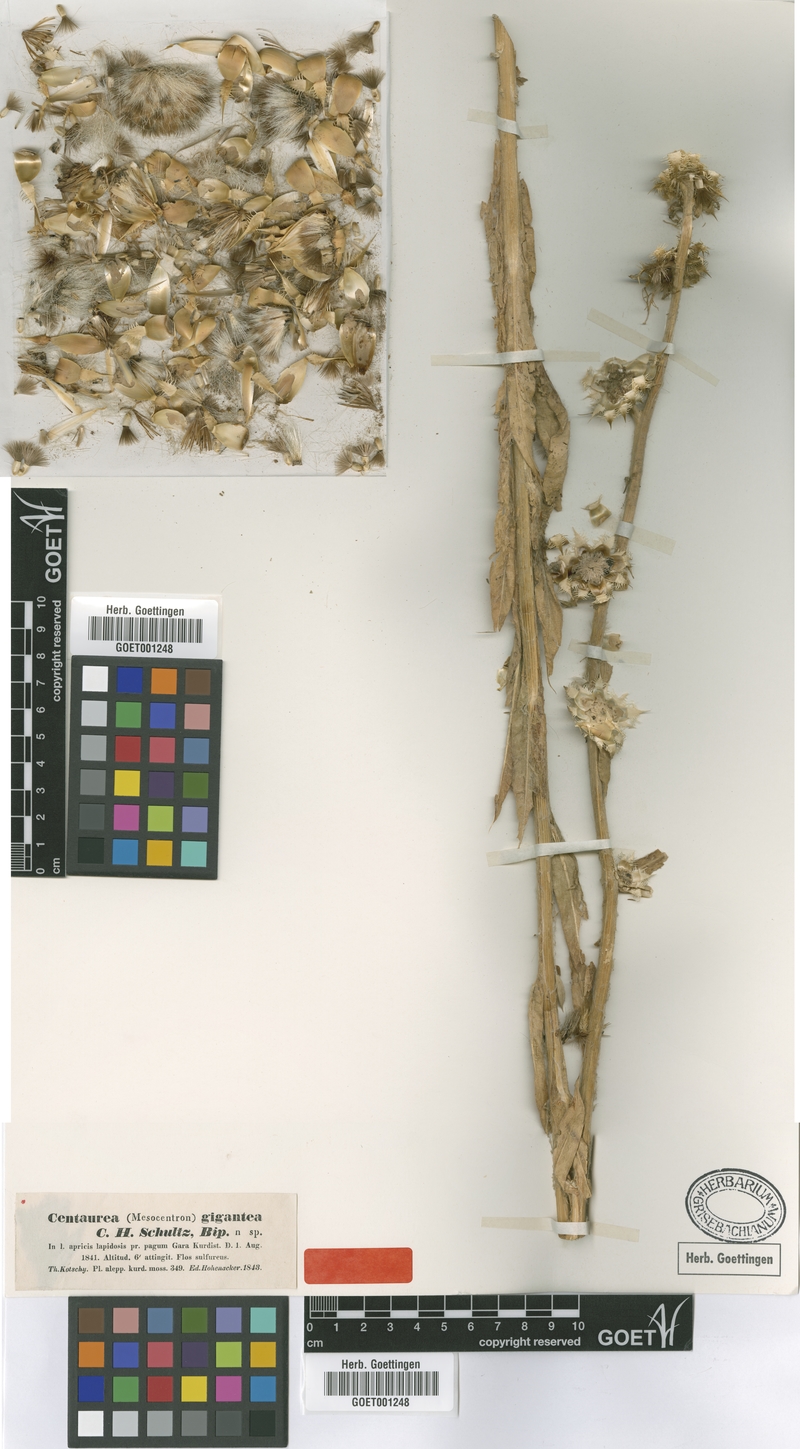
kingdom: Plantae
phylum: Tracheophyta
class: Magnoliopsida
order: Asterales
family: Asteraceae
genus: Centaurea
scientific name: Centaurea gigantea
